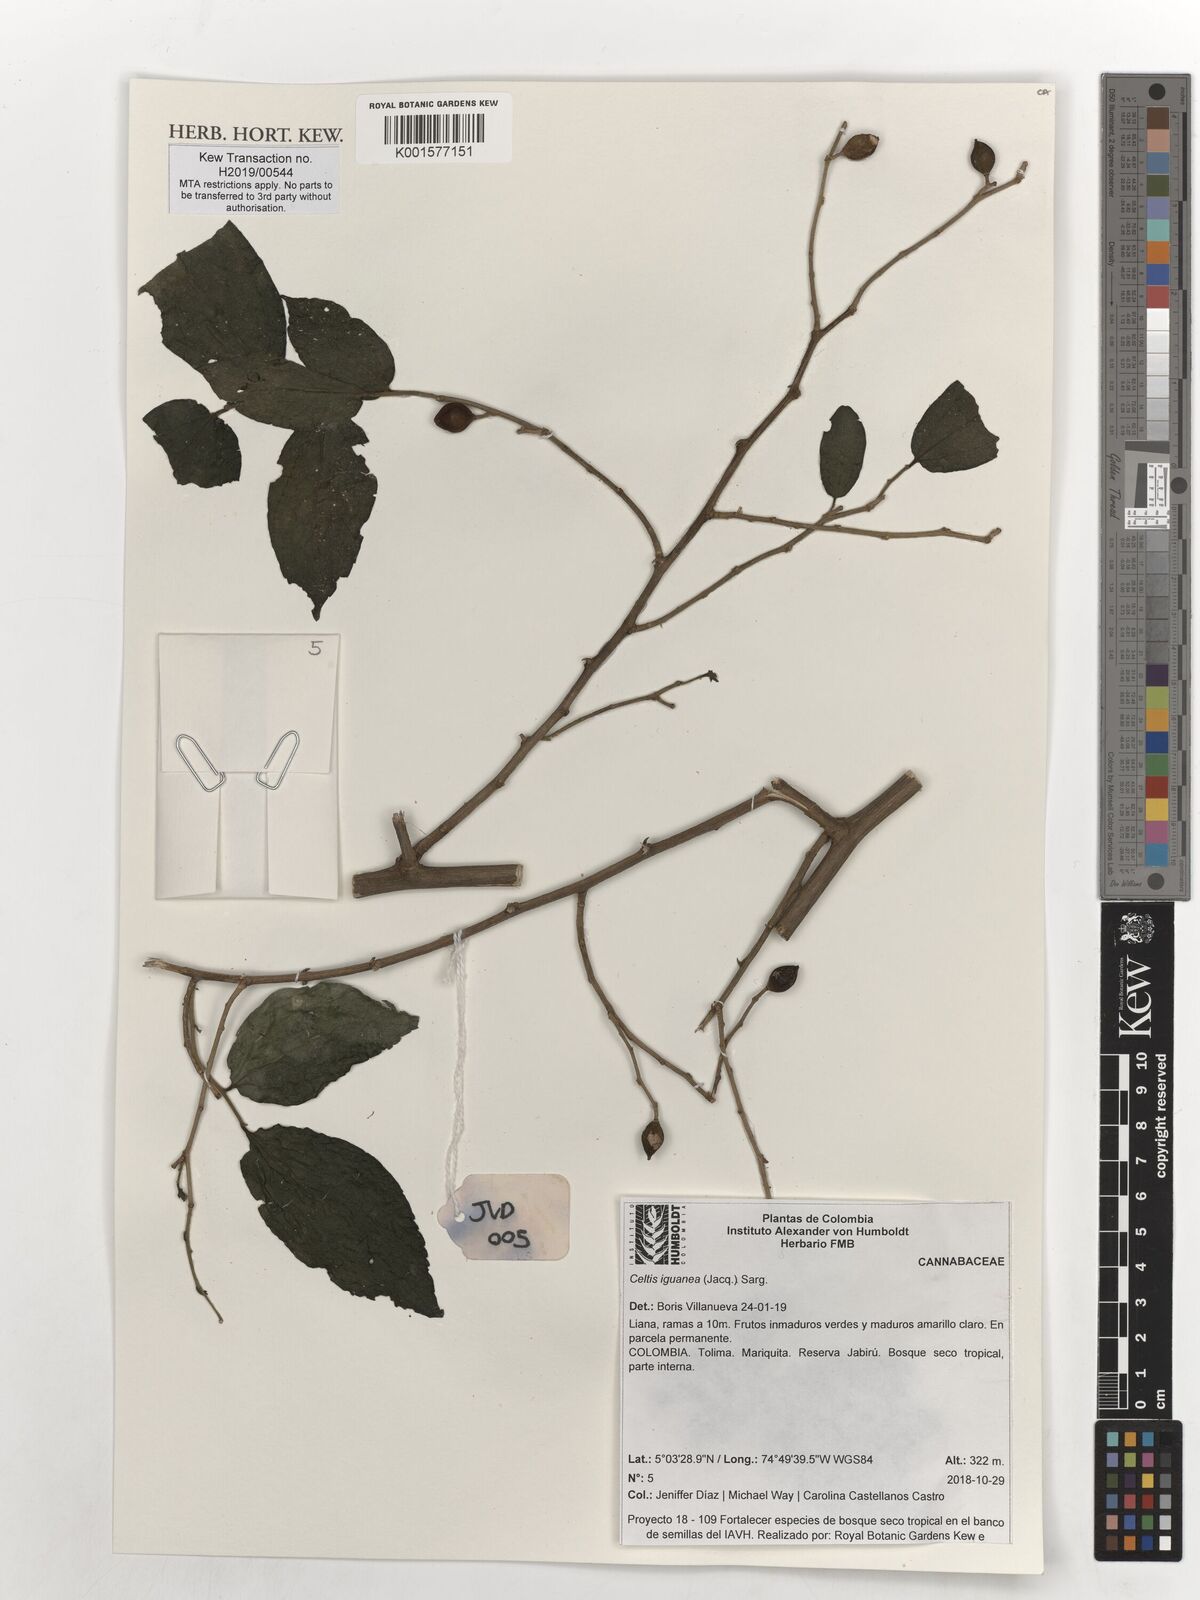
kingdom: Plantae
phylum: Tracheophyta
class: Magnoliopsida
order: Rosales
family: Cannabaceae
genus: Celtis
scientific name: Celtis iguanaea
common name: Iguana hackberry
